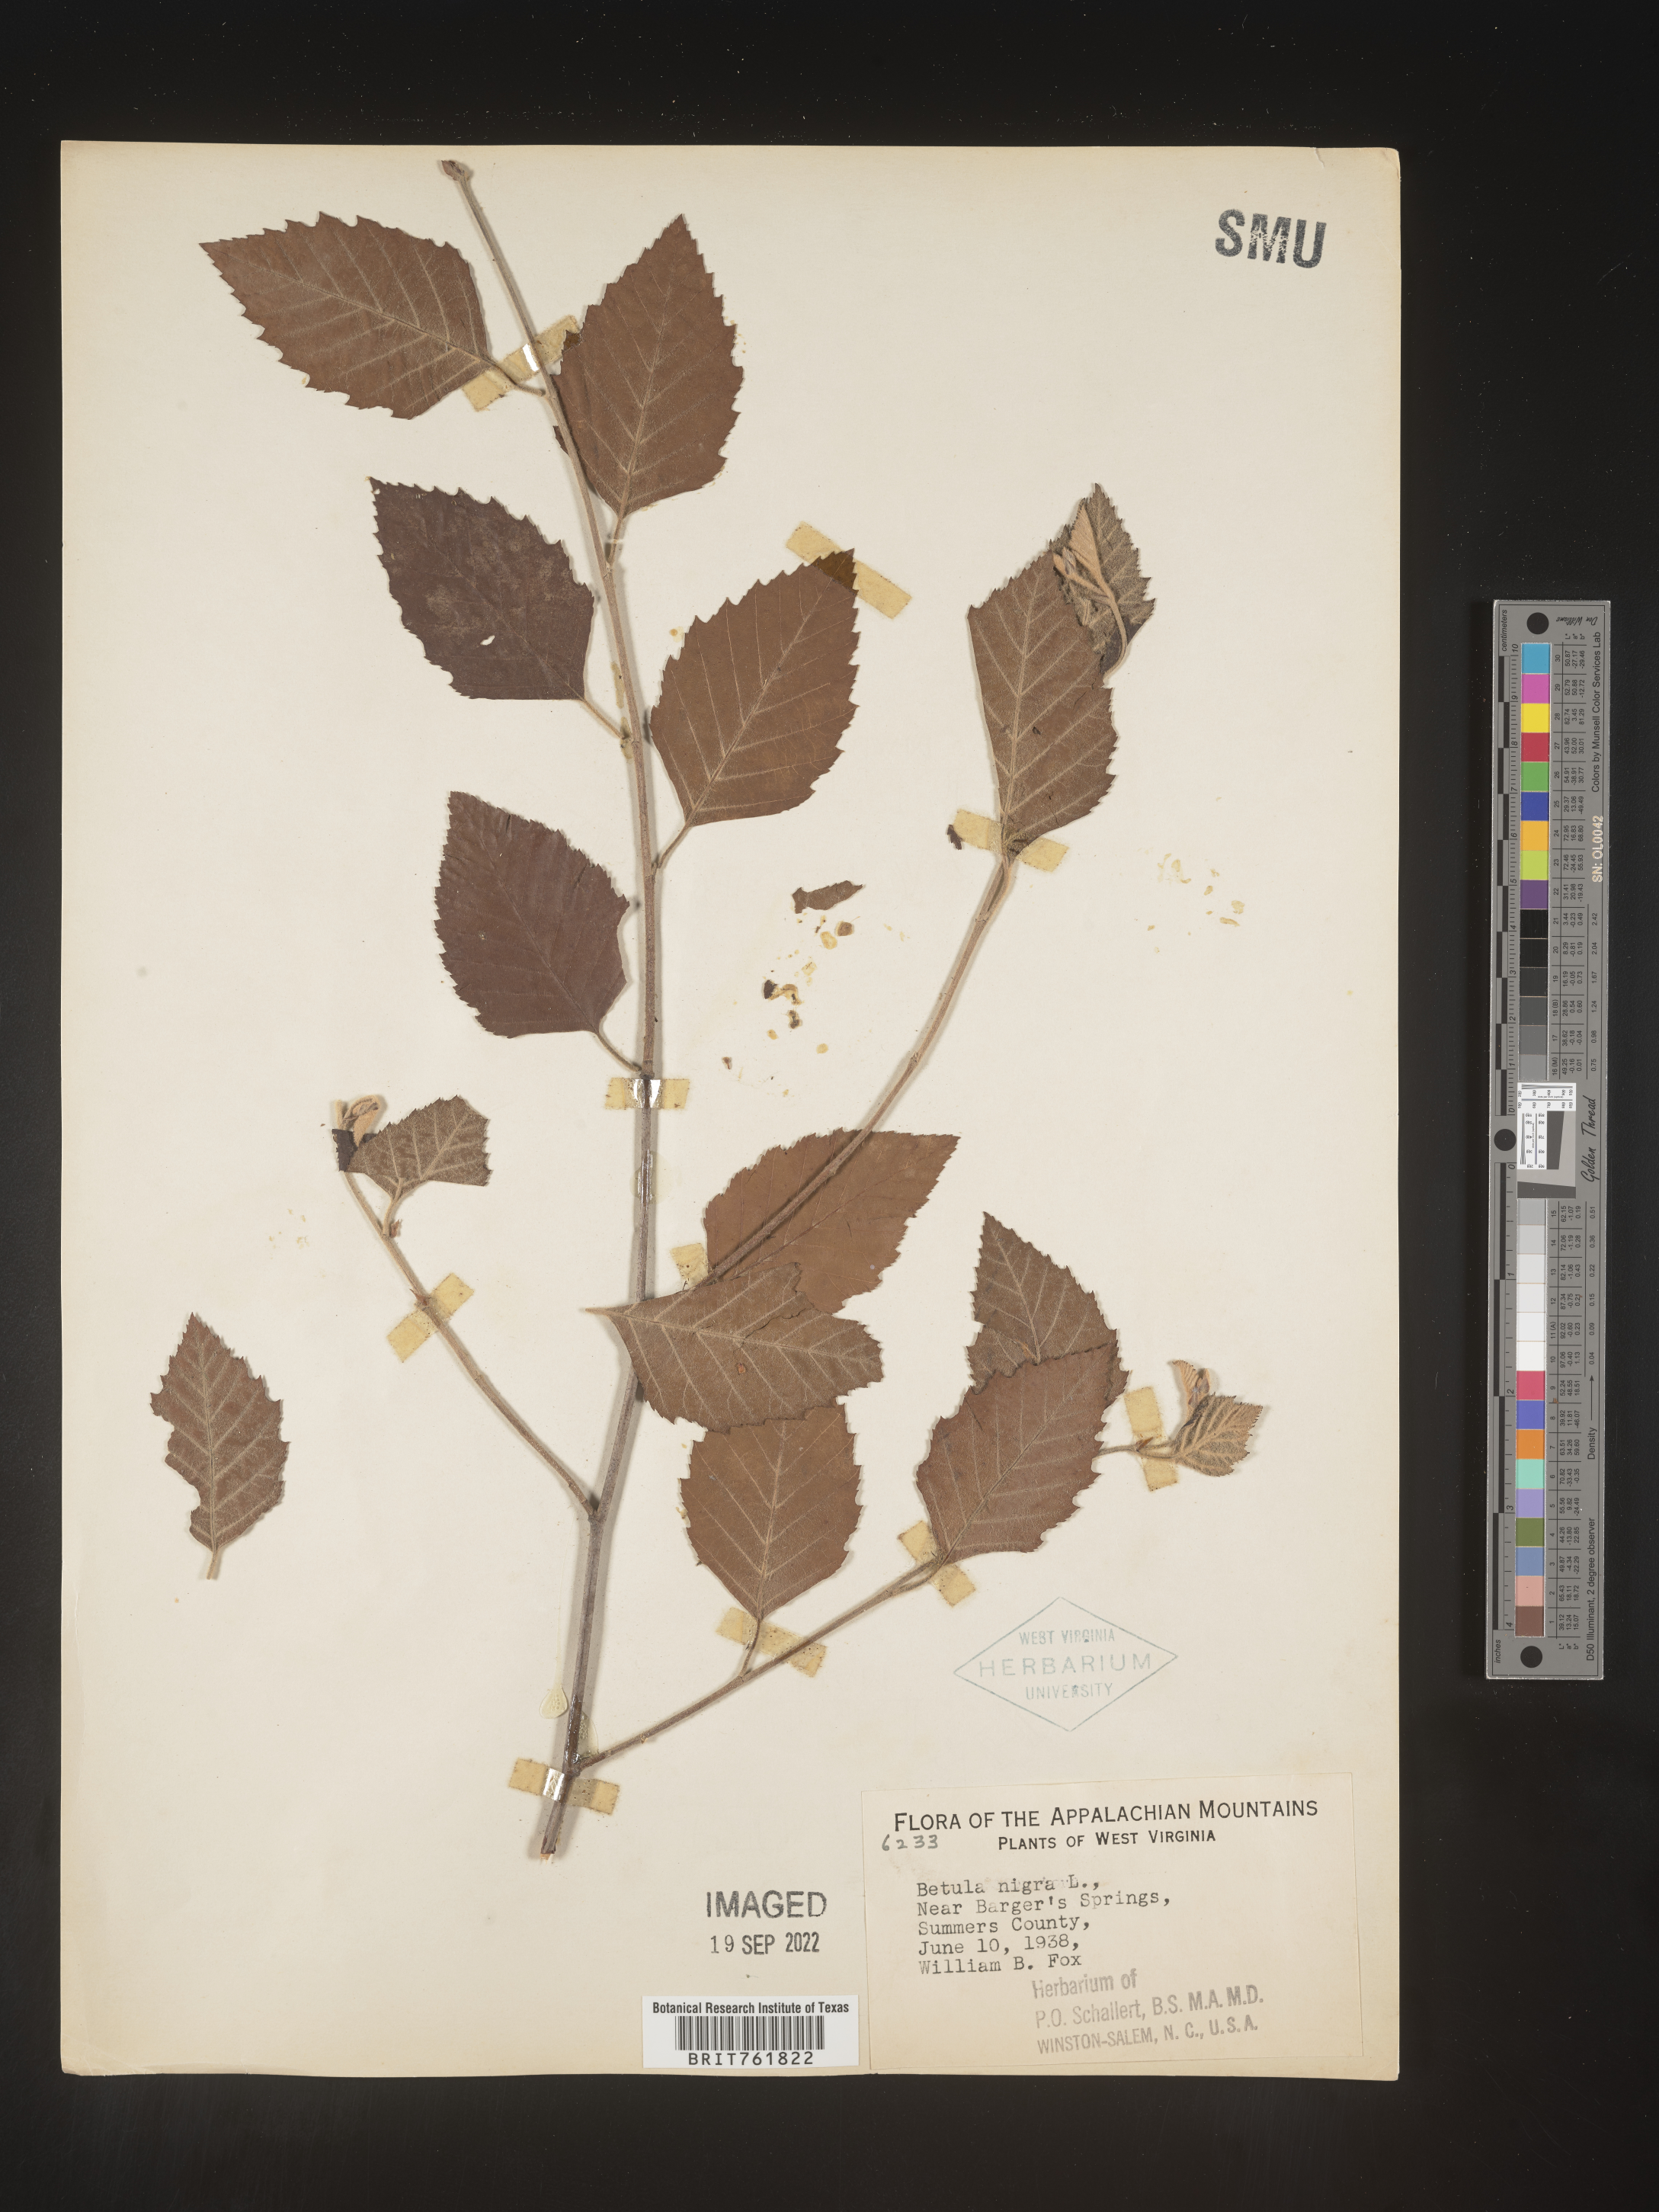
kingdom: Plantae
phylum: Tracheophyta
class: Magnoliopsida
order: Fagales
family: Betulaceae
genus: Betula
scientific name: Betula nigra
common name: Black birch
